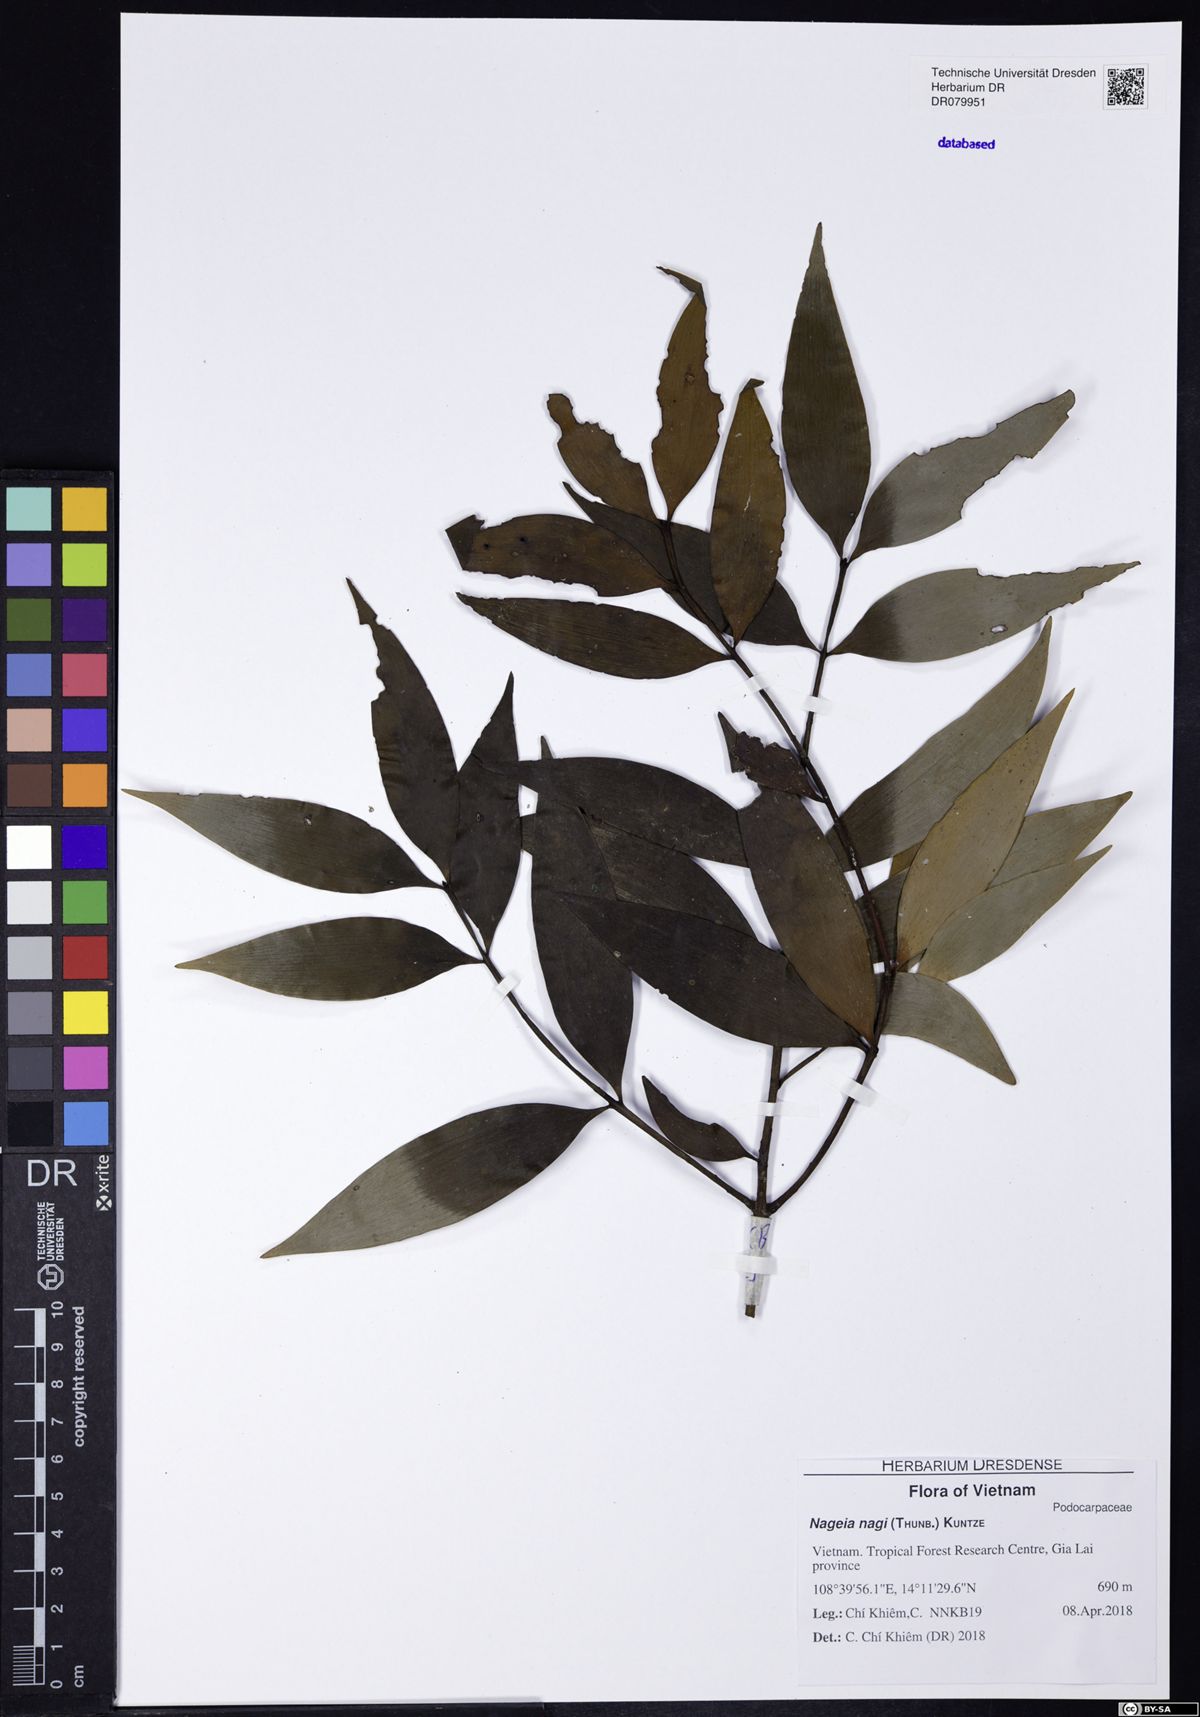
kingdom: Plantae
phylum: Tracheophyta
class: Pinopsida
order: Pinales
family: Podocarpaceae
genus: Nageia
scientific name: Nageia nagi
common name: Kaphal
